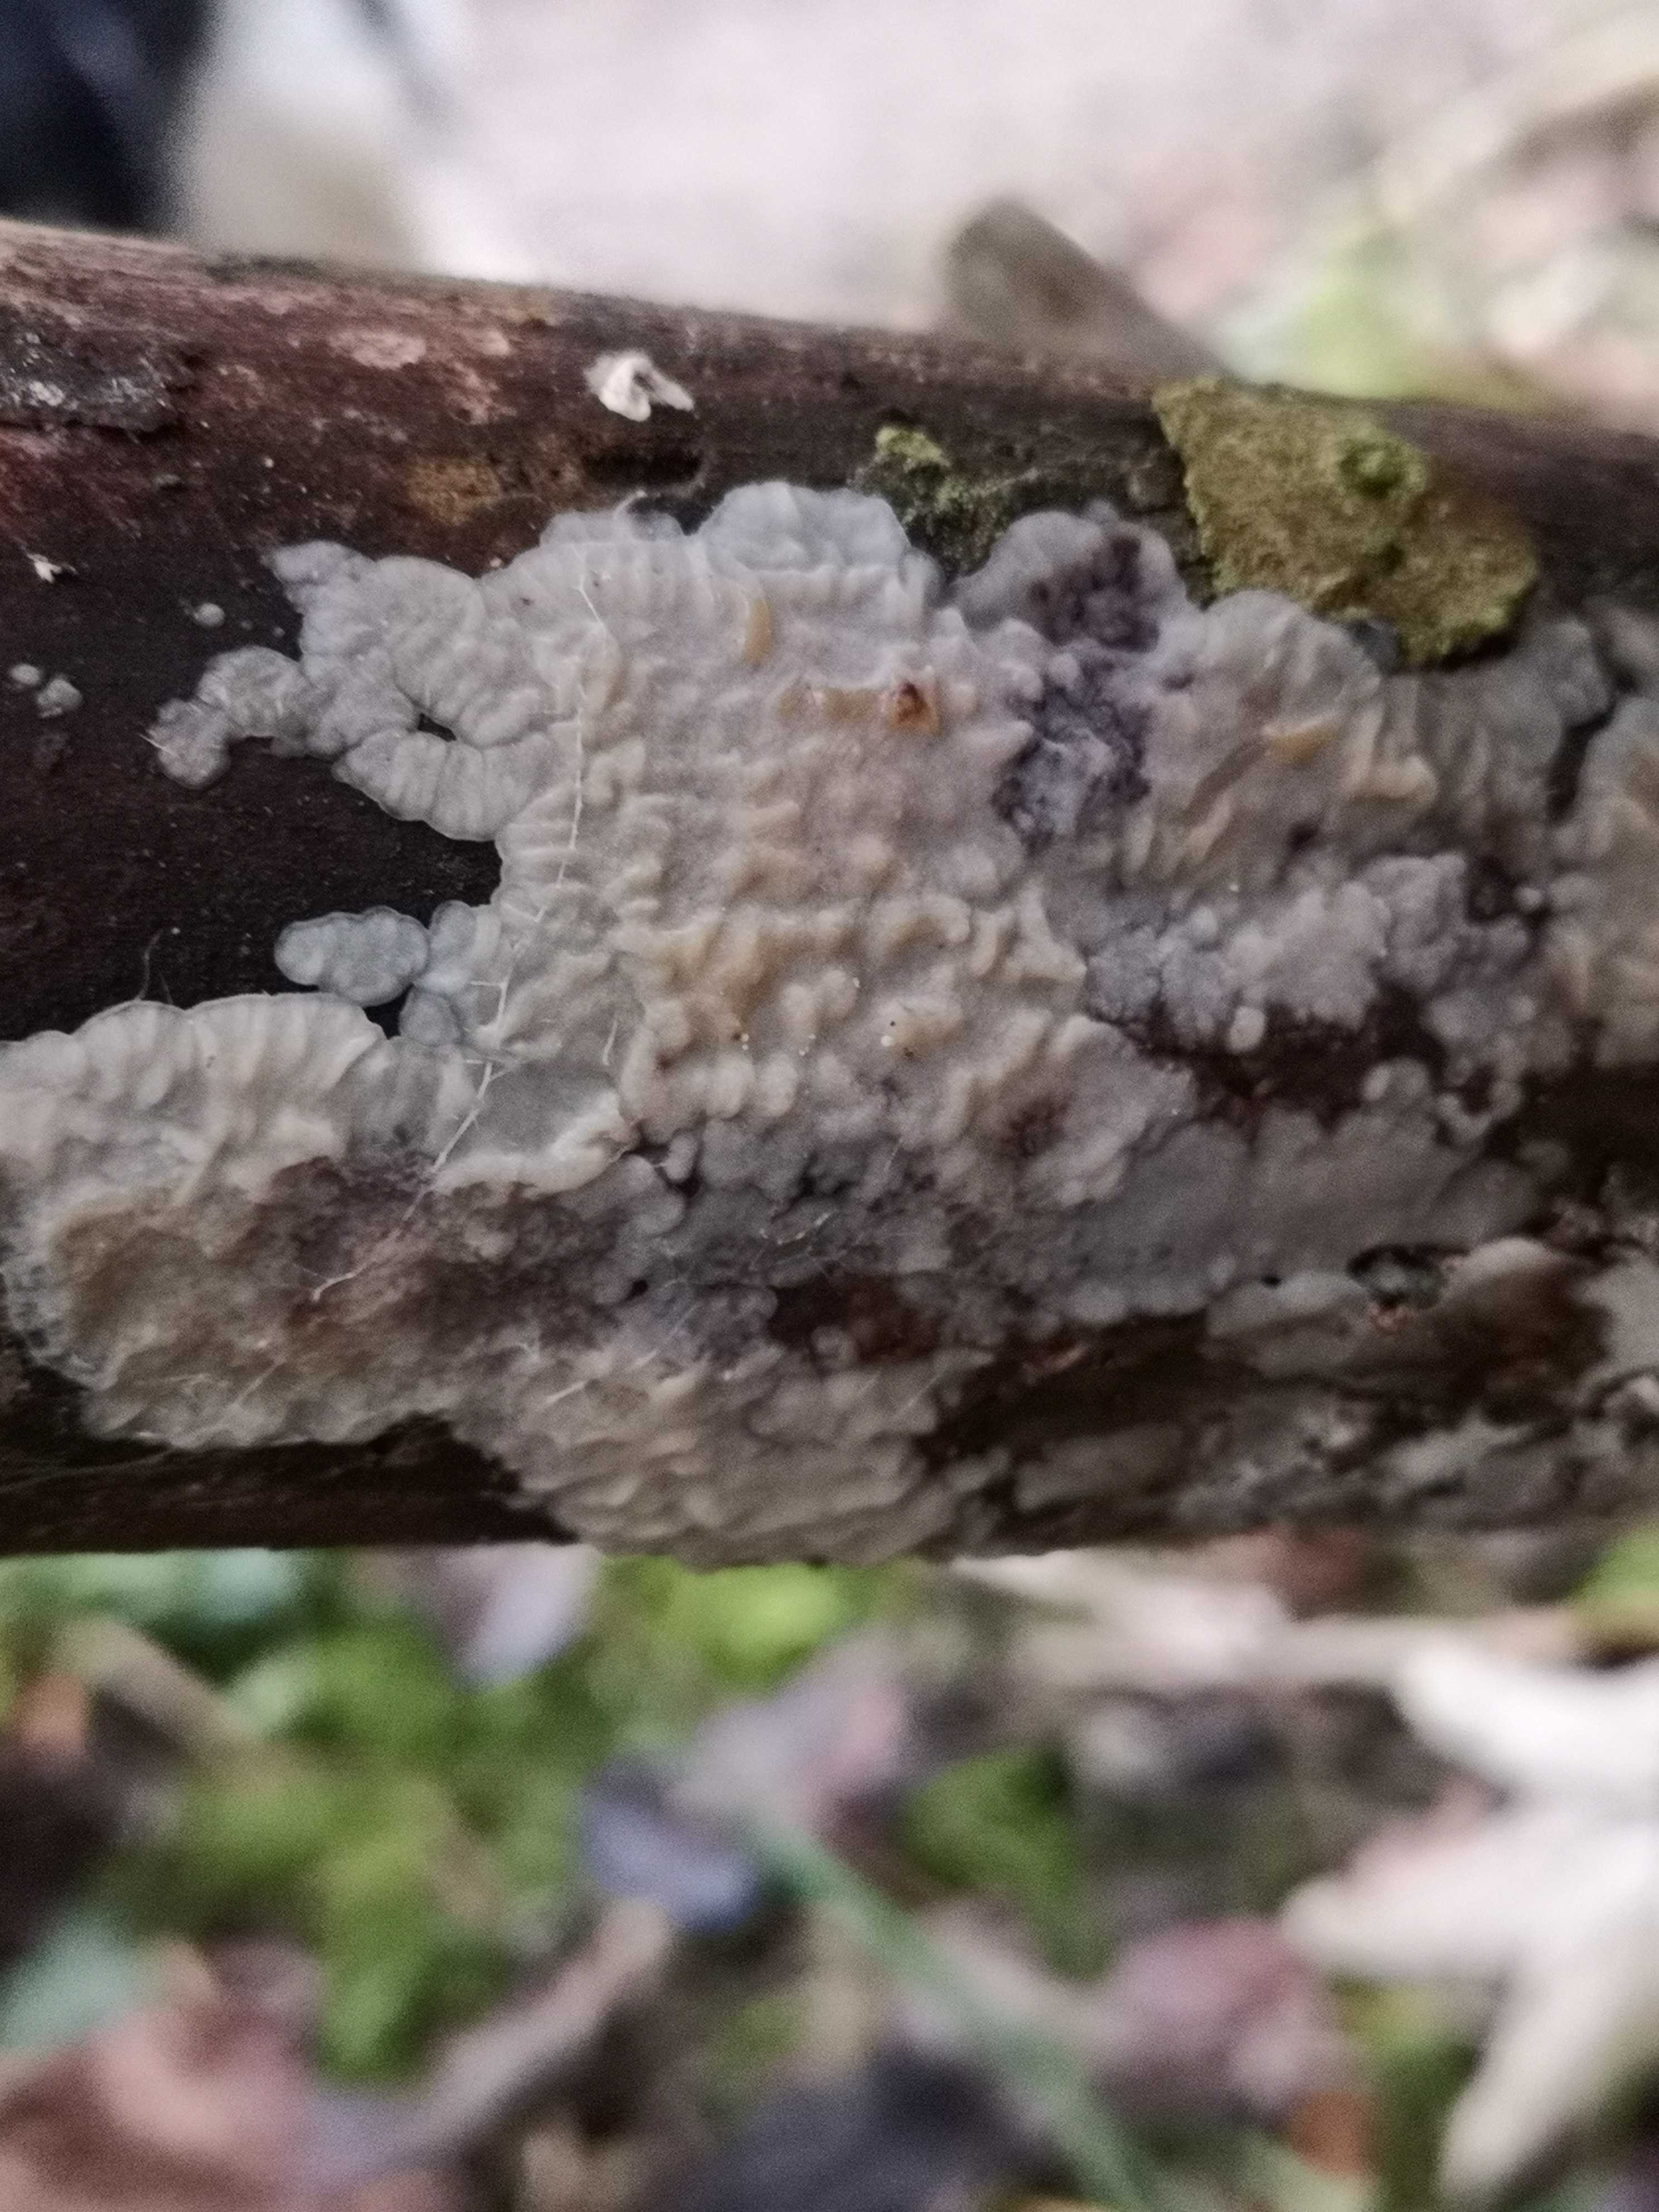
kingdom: Fungi
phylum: Basidiomycota
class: Agaricomycetes
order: Auriculariales
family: Auriculariaceae
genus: Exidia
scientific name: Exidia thuretiana
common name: hvidlig bævretop
